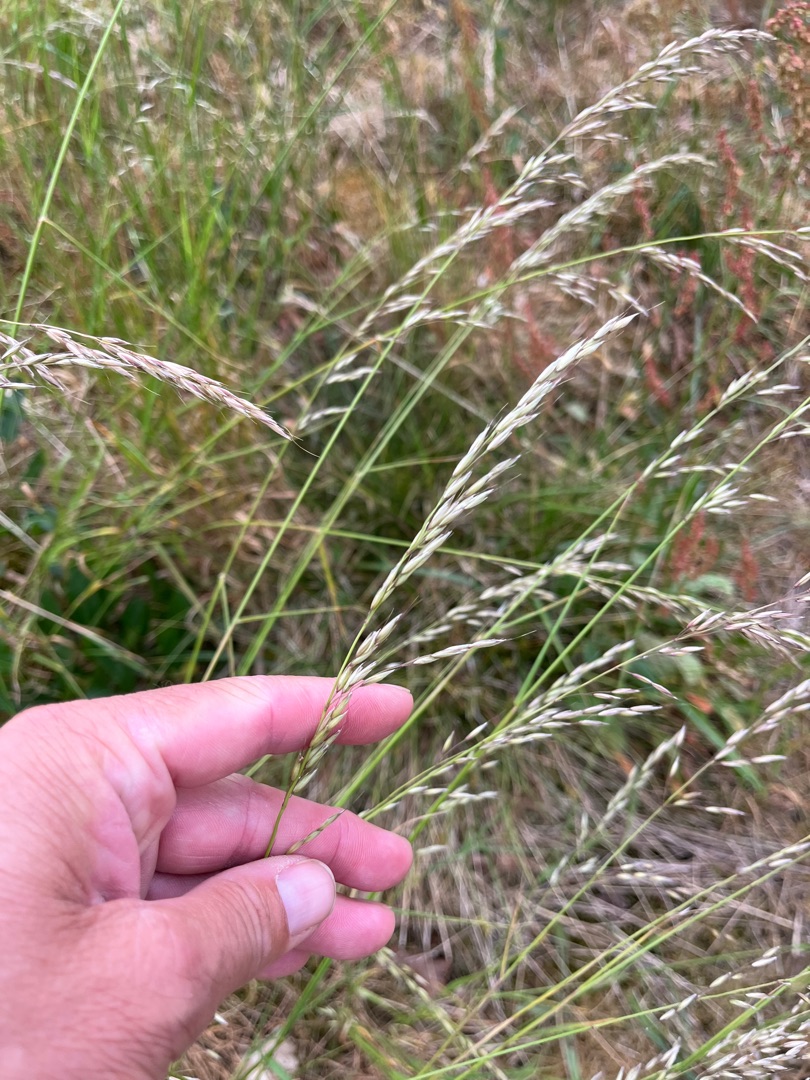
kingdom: Plantae
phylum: Tracheophyta
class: Liliopsida
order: Poales
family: Poaceae
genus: Arrhenatherum
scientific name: Arrhenatherum elatius
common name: Draphavre
